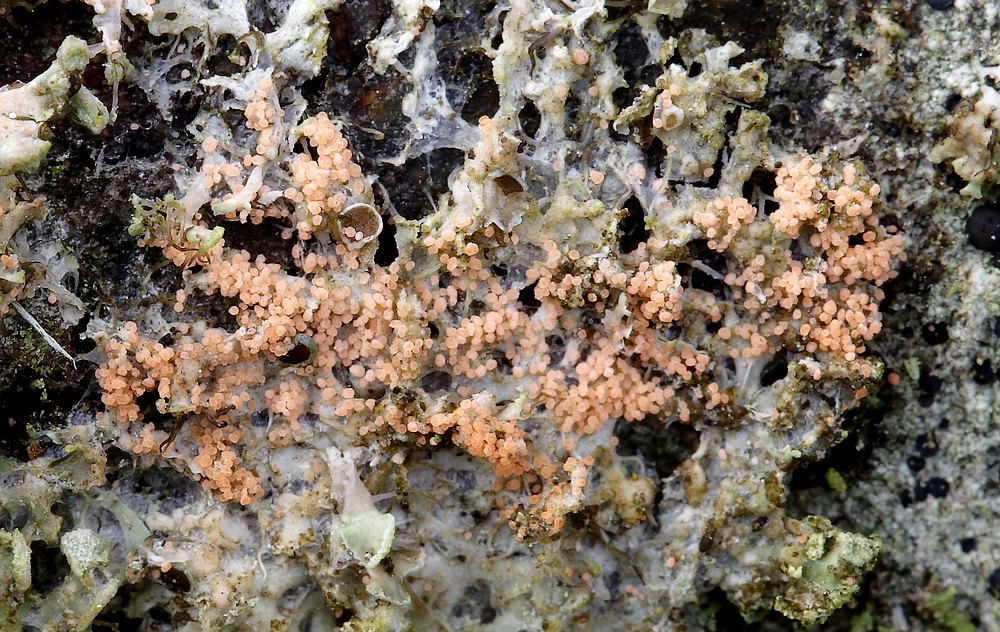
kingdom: Fungi
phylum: Basidiomycota
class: Agaricomycetes
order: Corticiales
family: Corticiaceae
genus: Erythricium
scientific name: Erythricium aurantiacum
